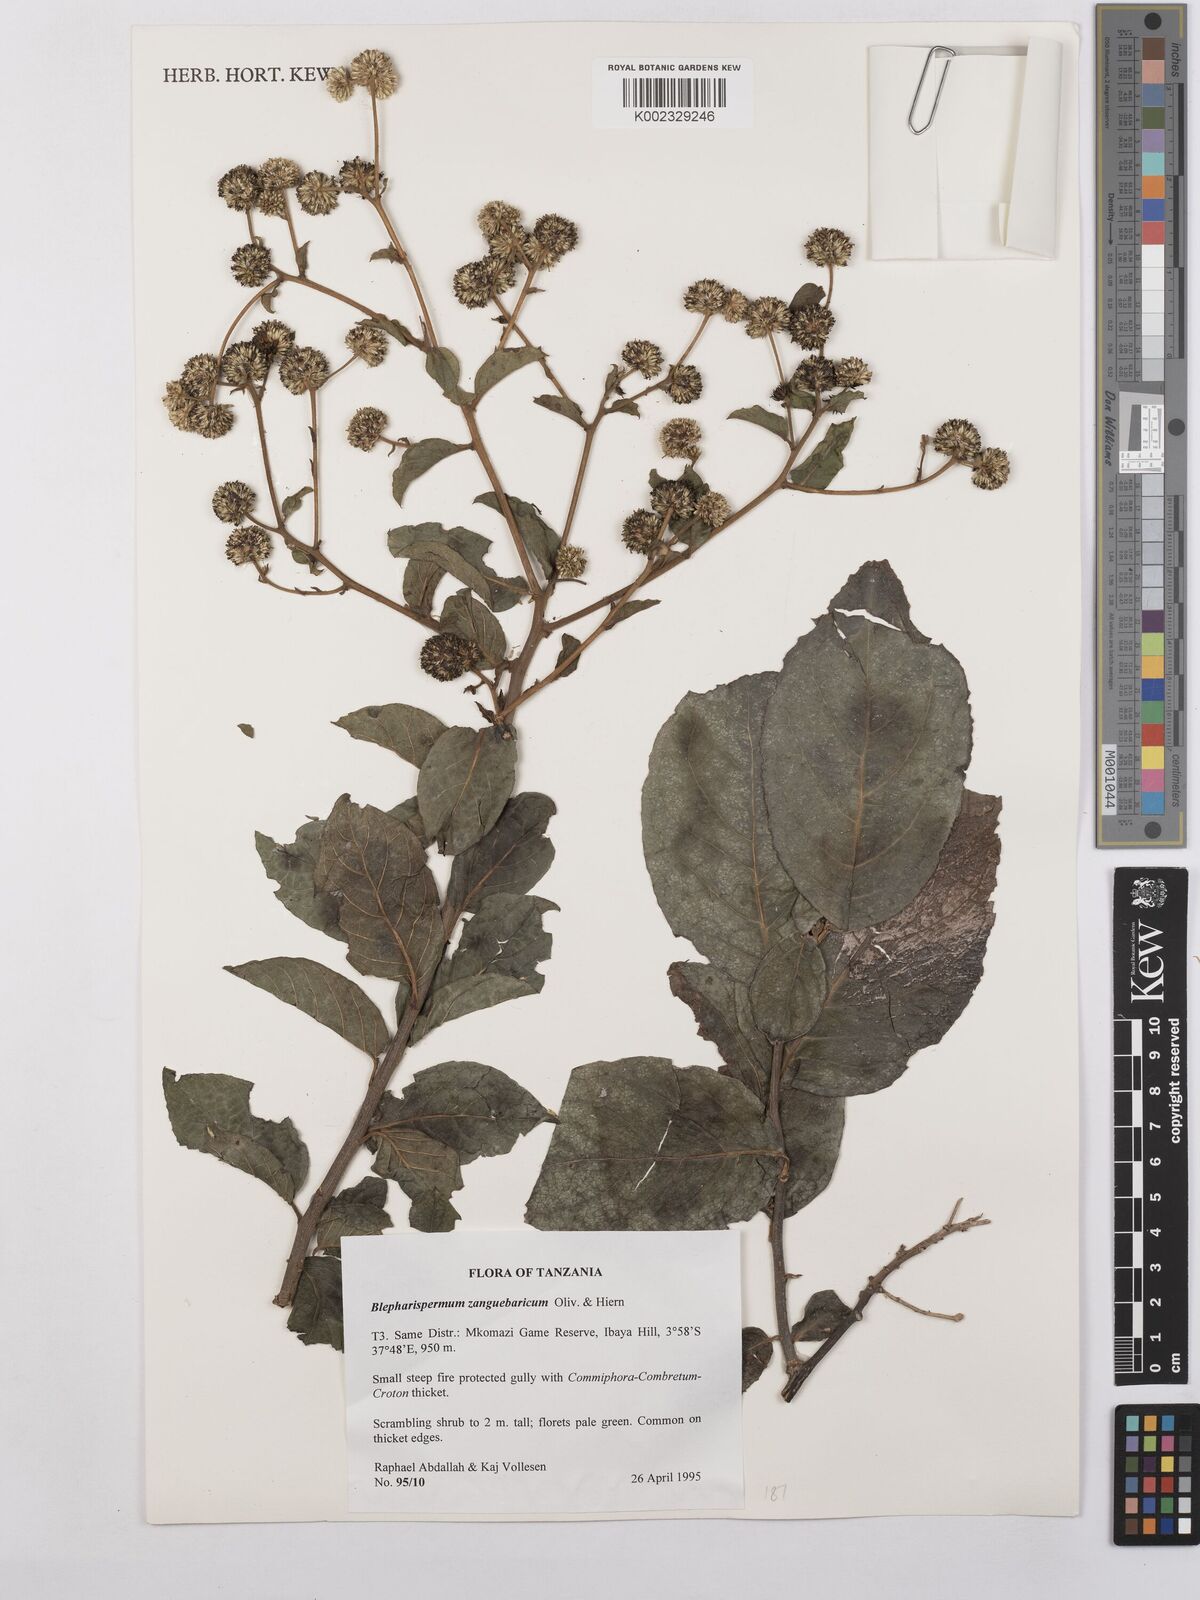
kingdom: Plantae
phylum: Tracheophyta
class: Magnoliopsida
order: Asterales
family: Asteraceae
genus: Blepharispermum
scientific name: Blepharispermum zanguebaricum
